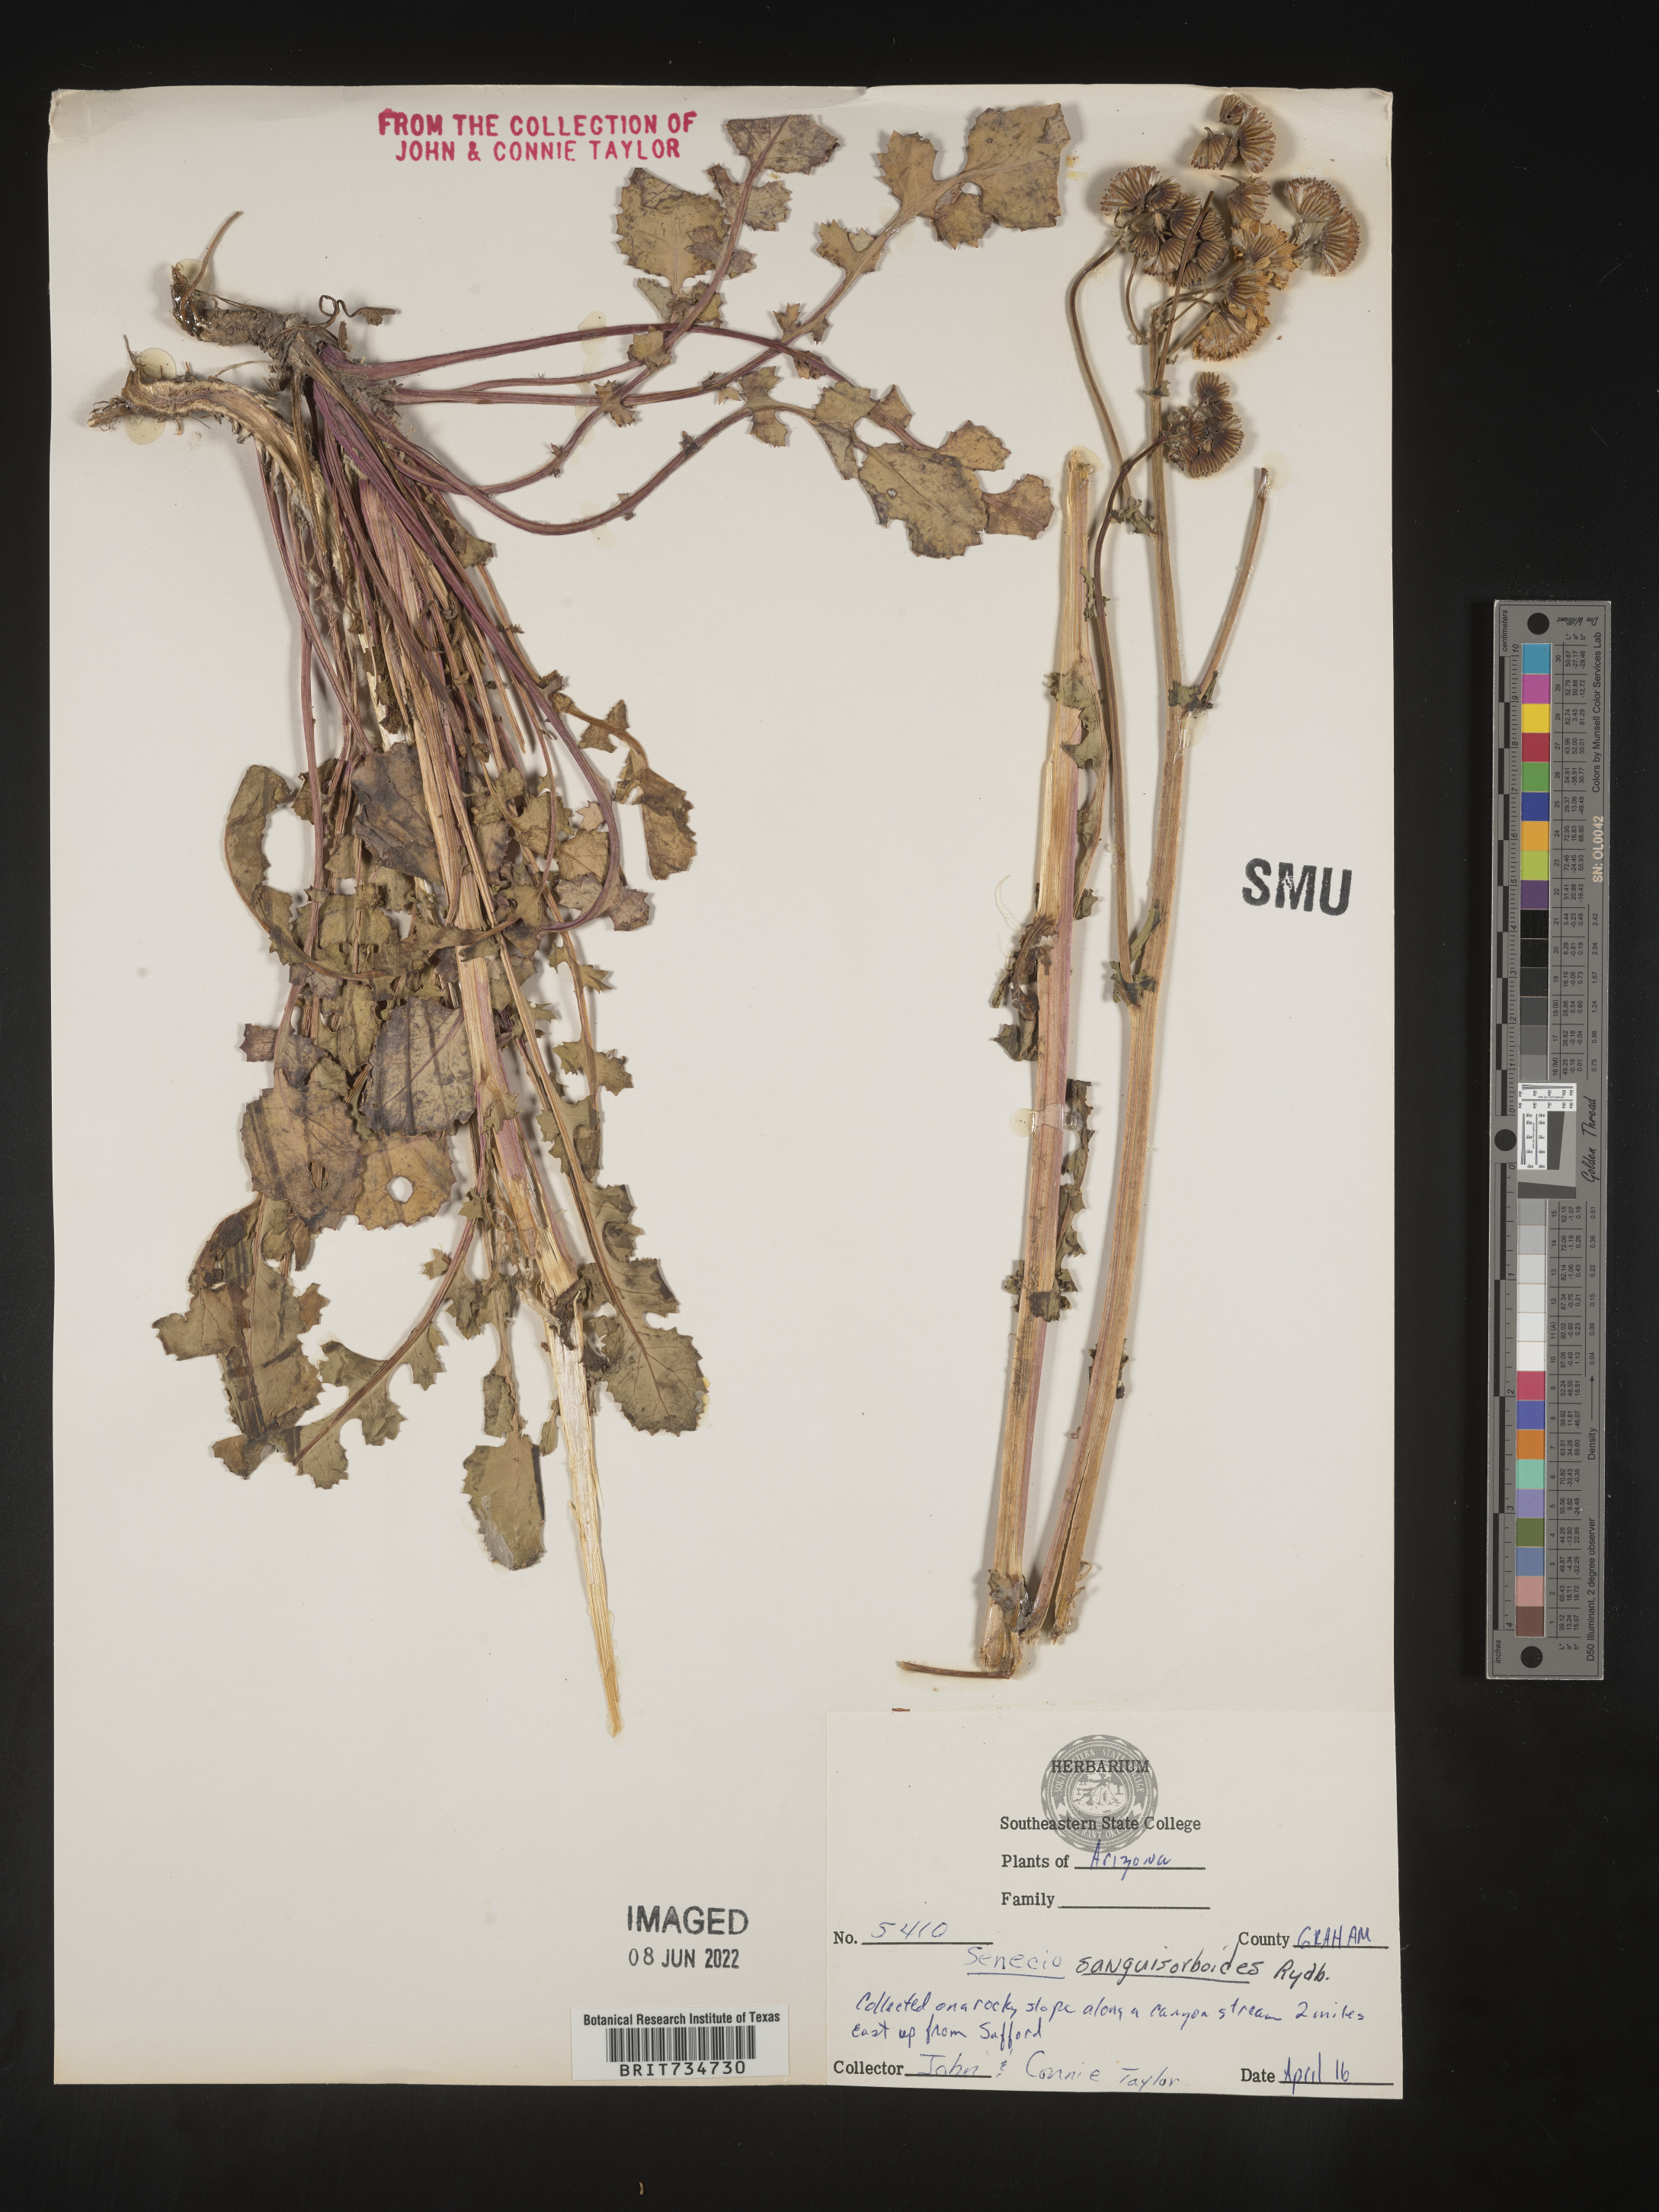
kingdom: Plantae
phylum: Tracheophyta
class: Magnoliopsida
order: Asterales
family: Asteraceae
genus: Packera
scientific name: Packera quercetorum
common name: Oak creek ragwort
